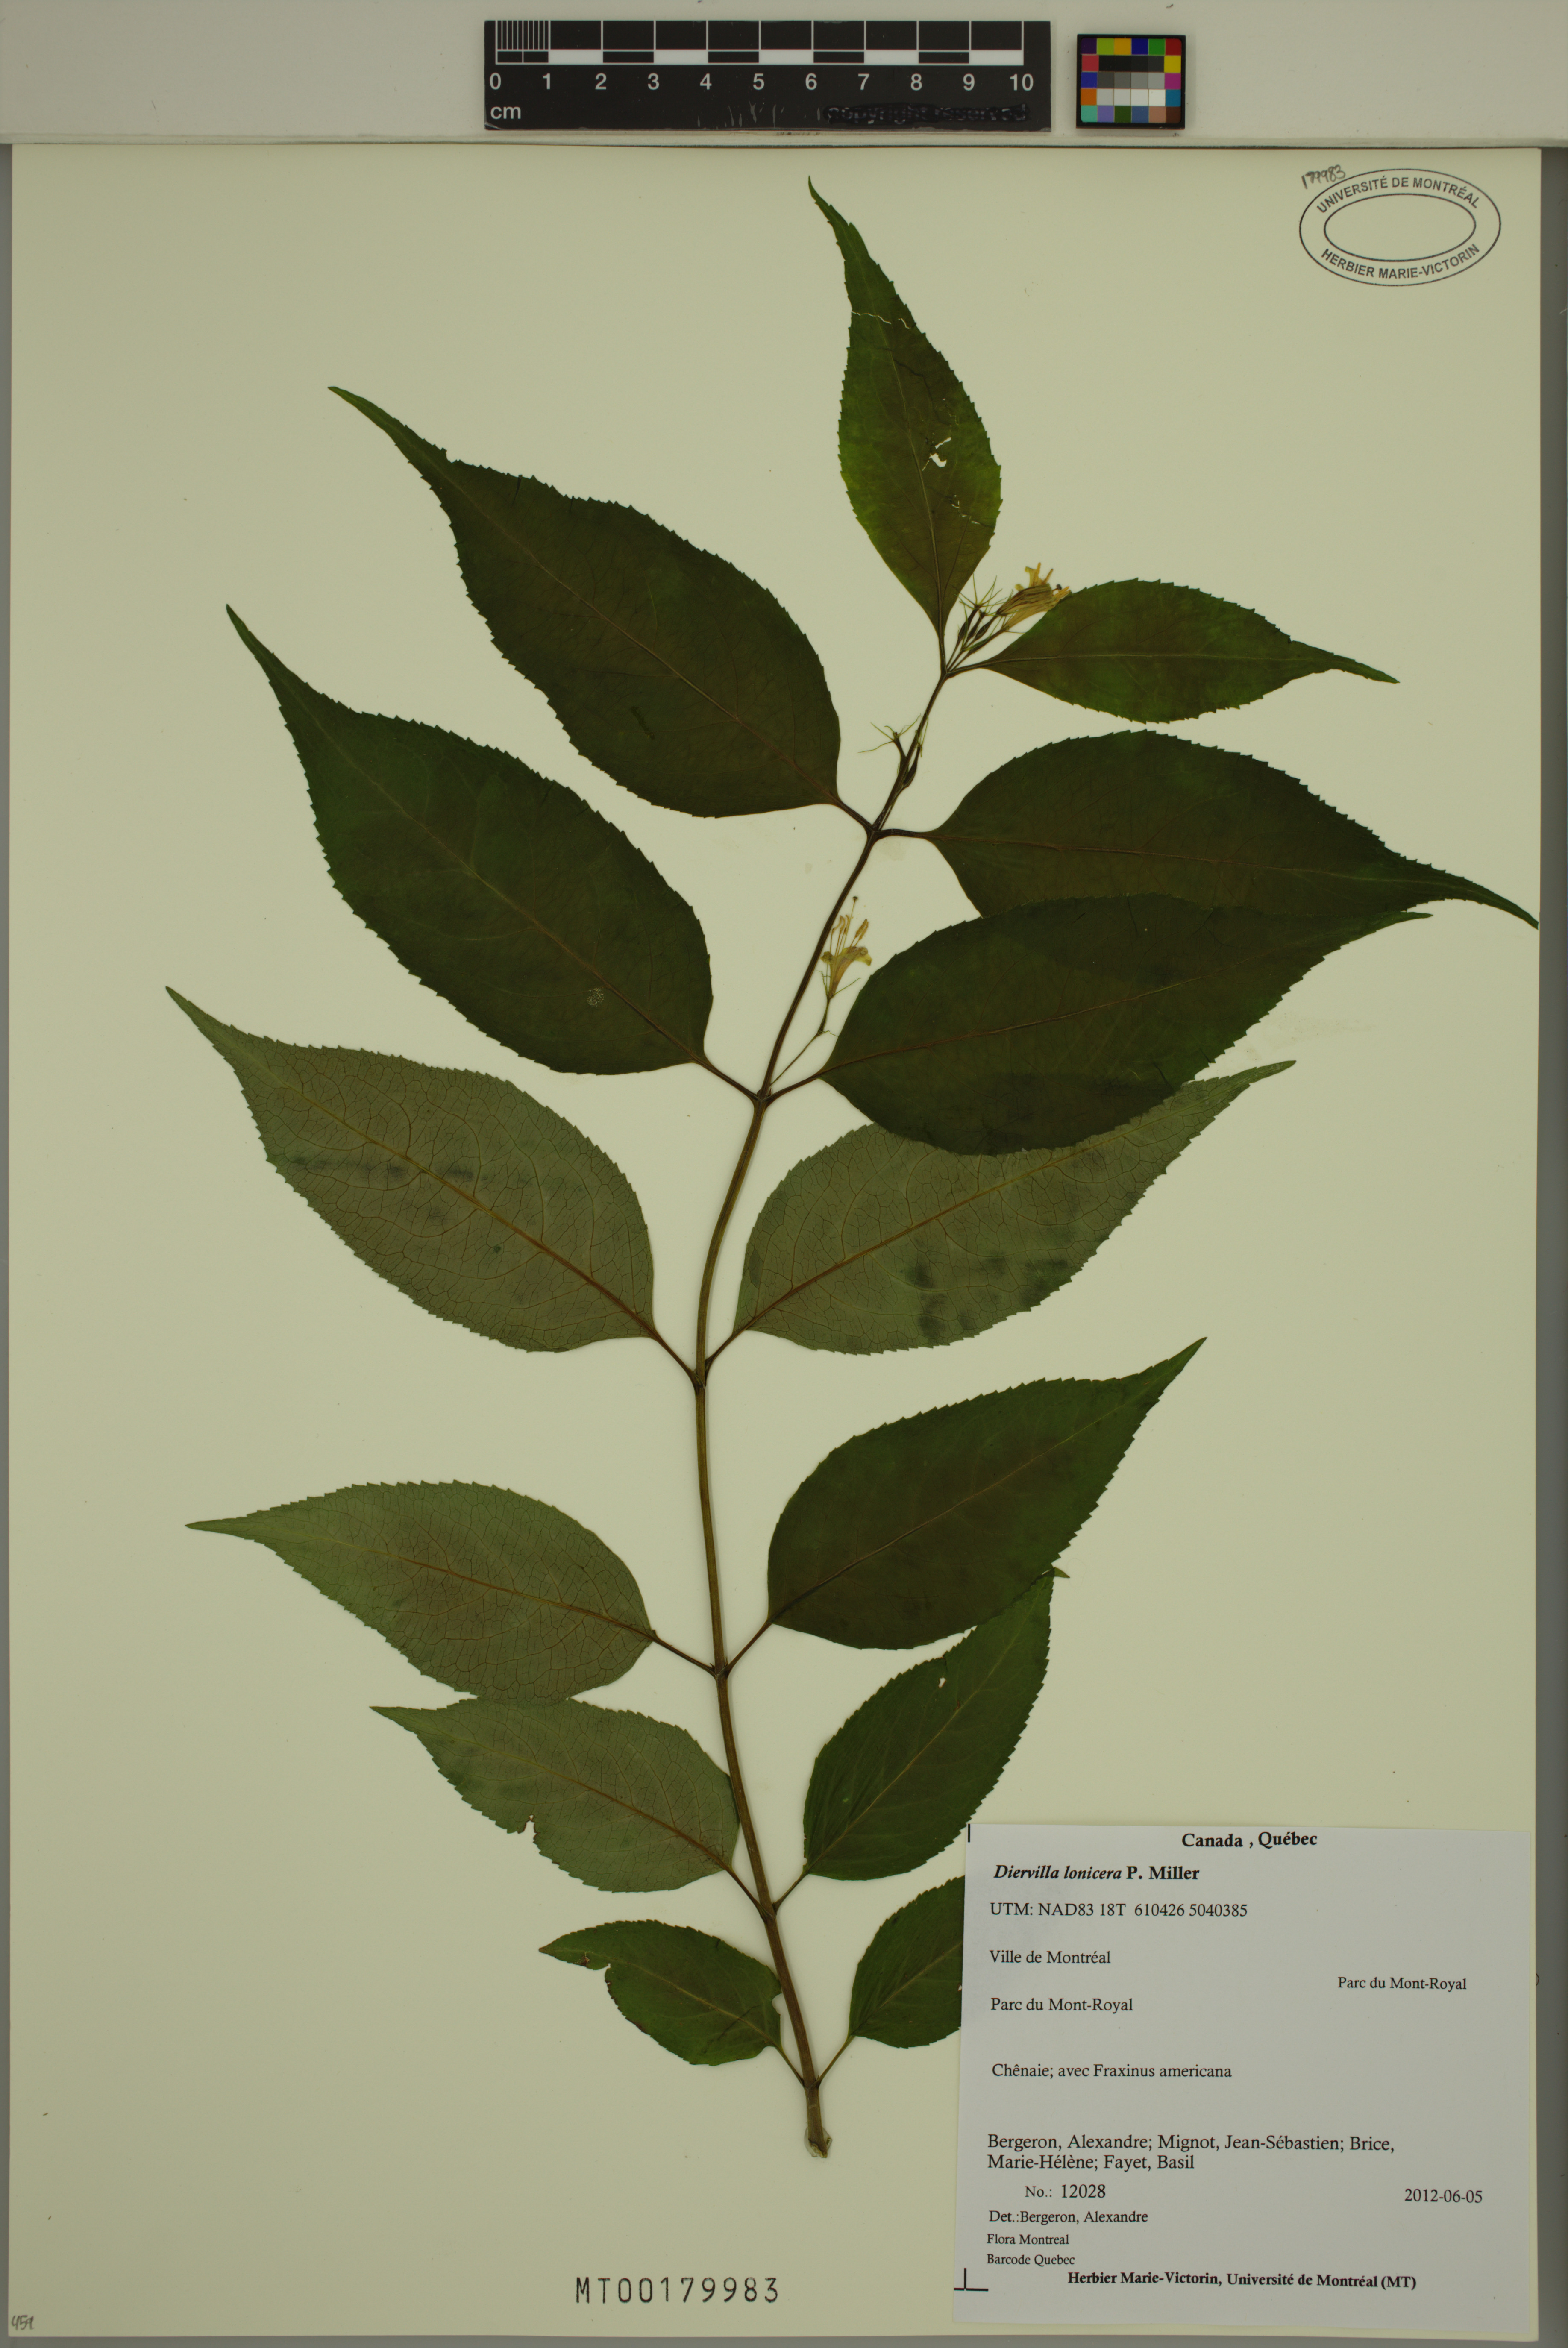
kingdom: Plantae
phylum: Tracheophyta
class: Magnoliopsida
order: Dipsacales
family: Caprifoliaceae
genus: Diervilla
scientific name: Diervilla lonicera
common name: Bush-honeysuckle
